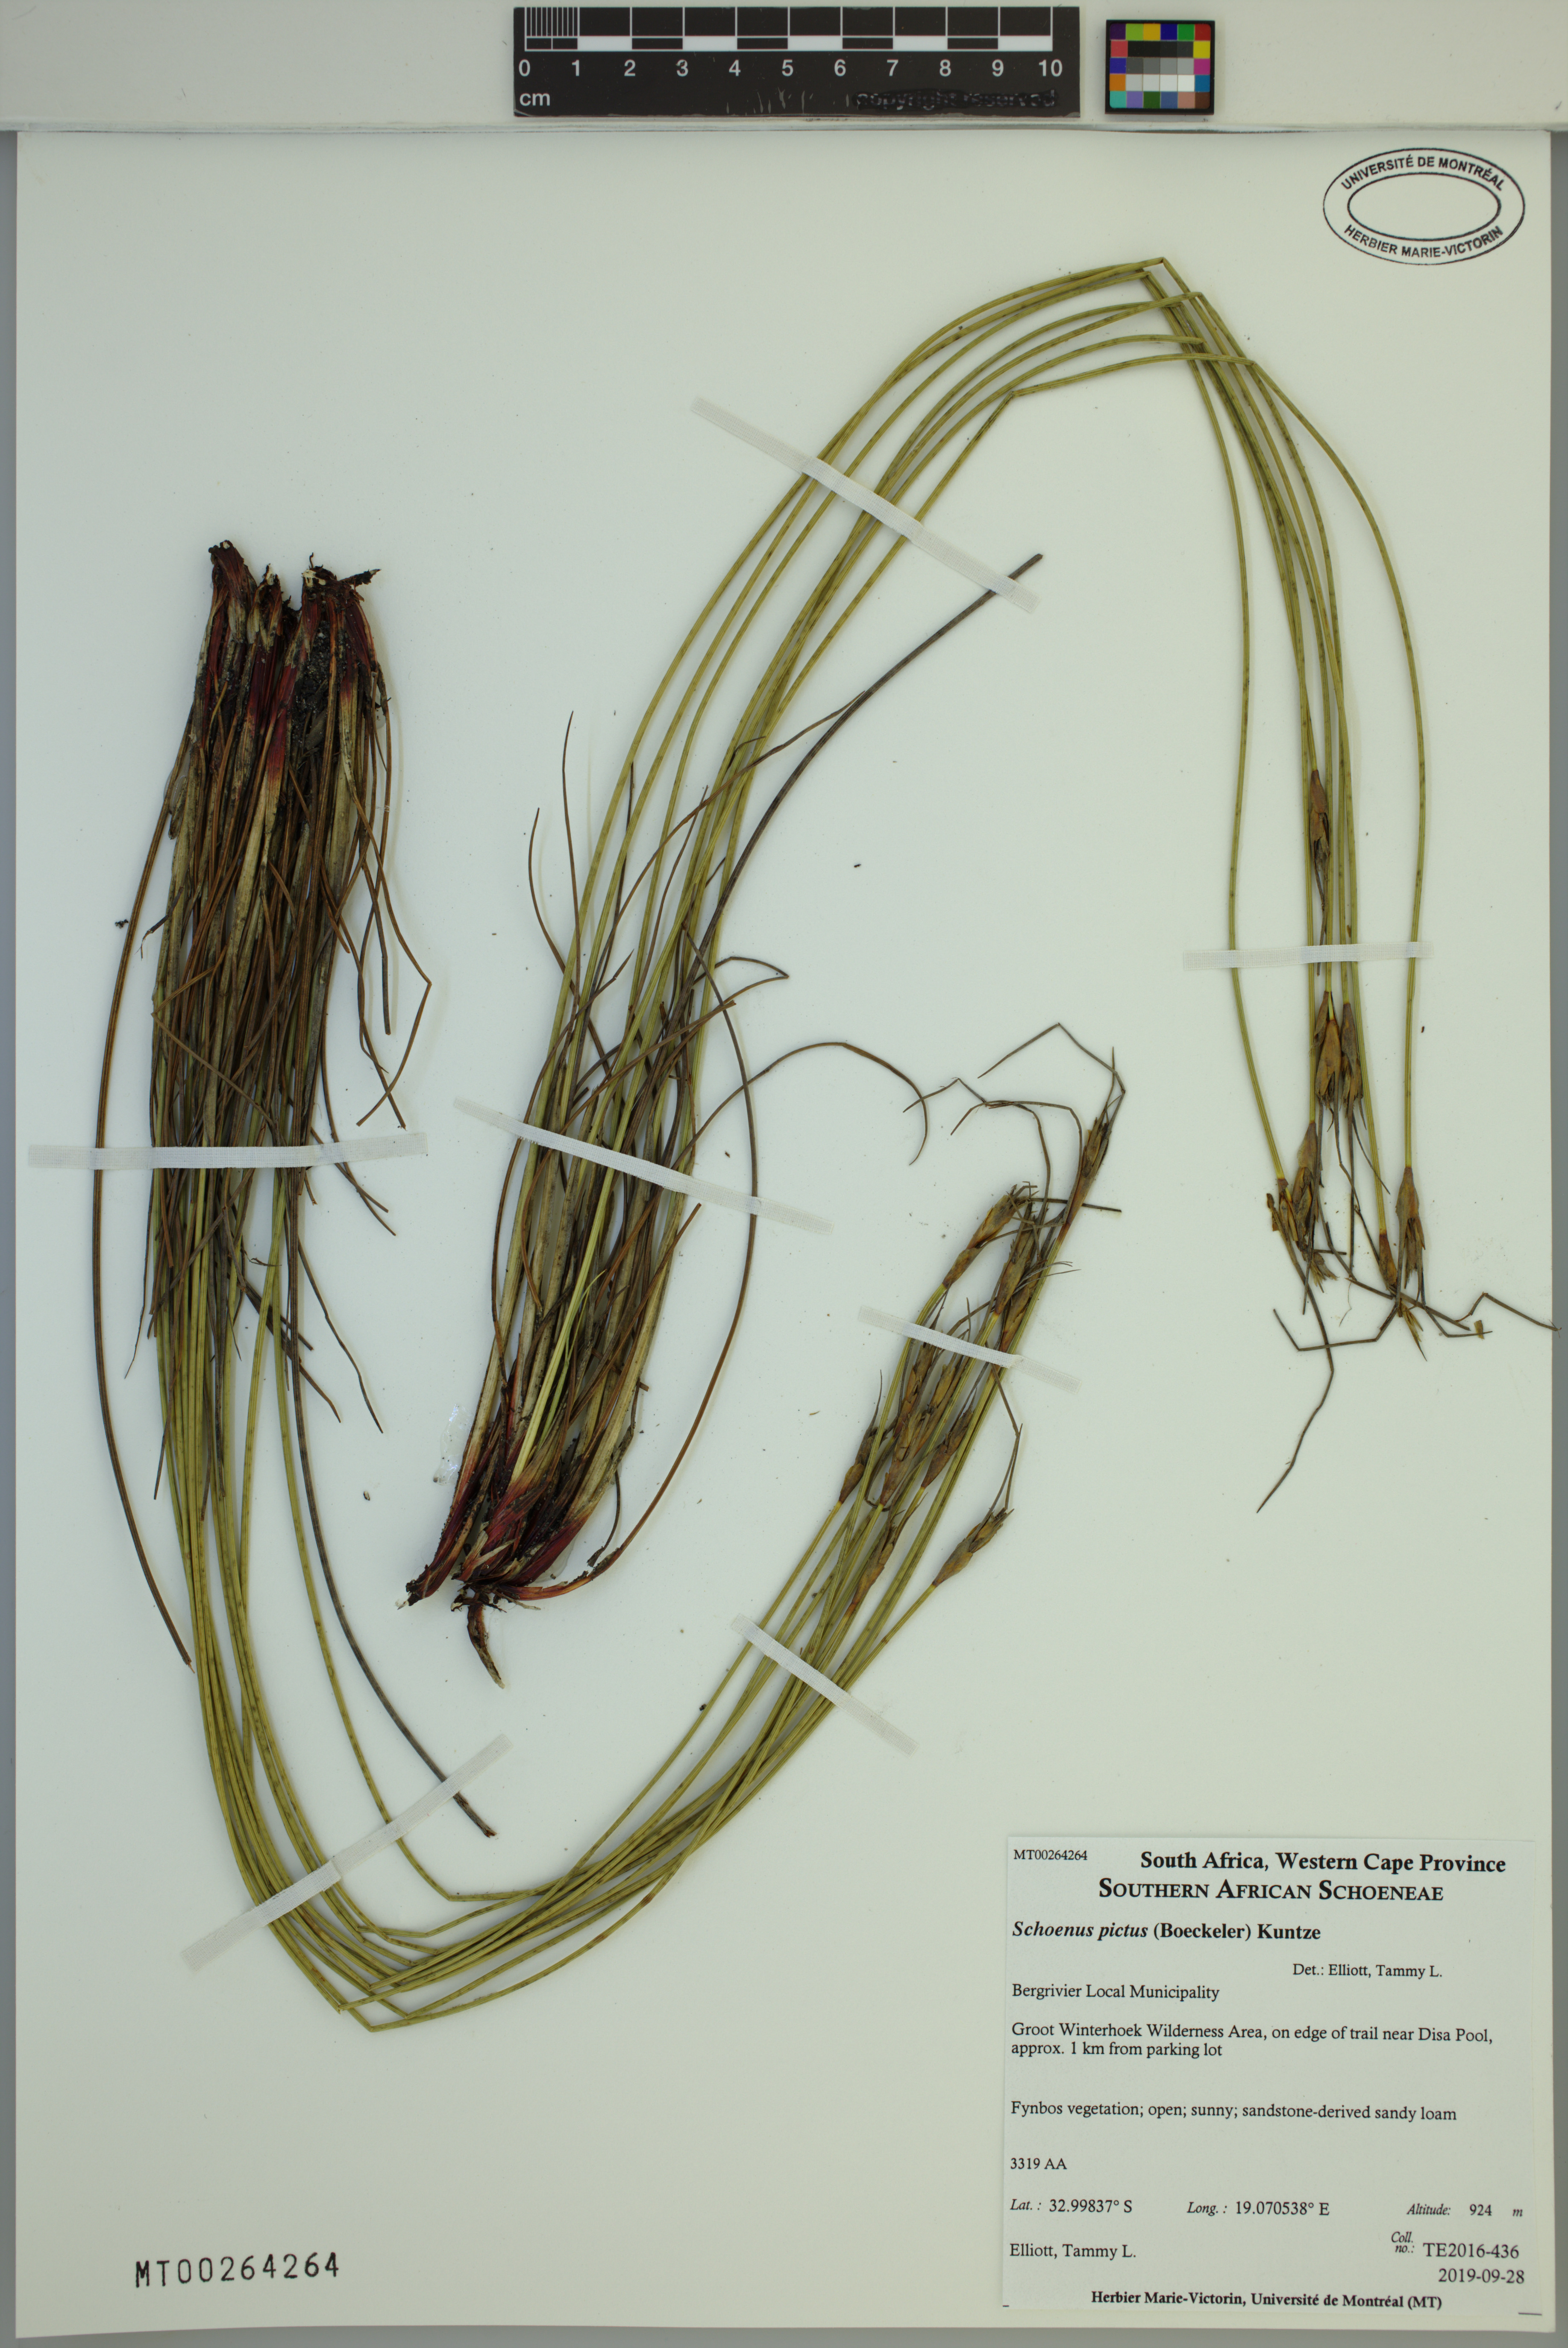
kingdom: Plantae
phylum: Tracheophyta
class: Liliopsida
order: Poales
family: Cyperaceae
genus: Schoenus
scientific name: Schoenus pictus
